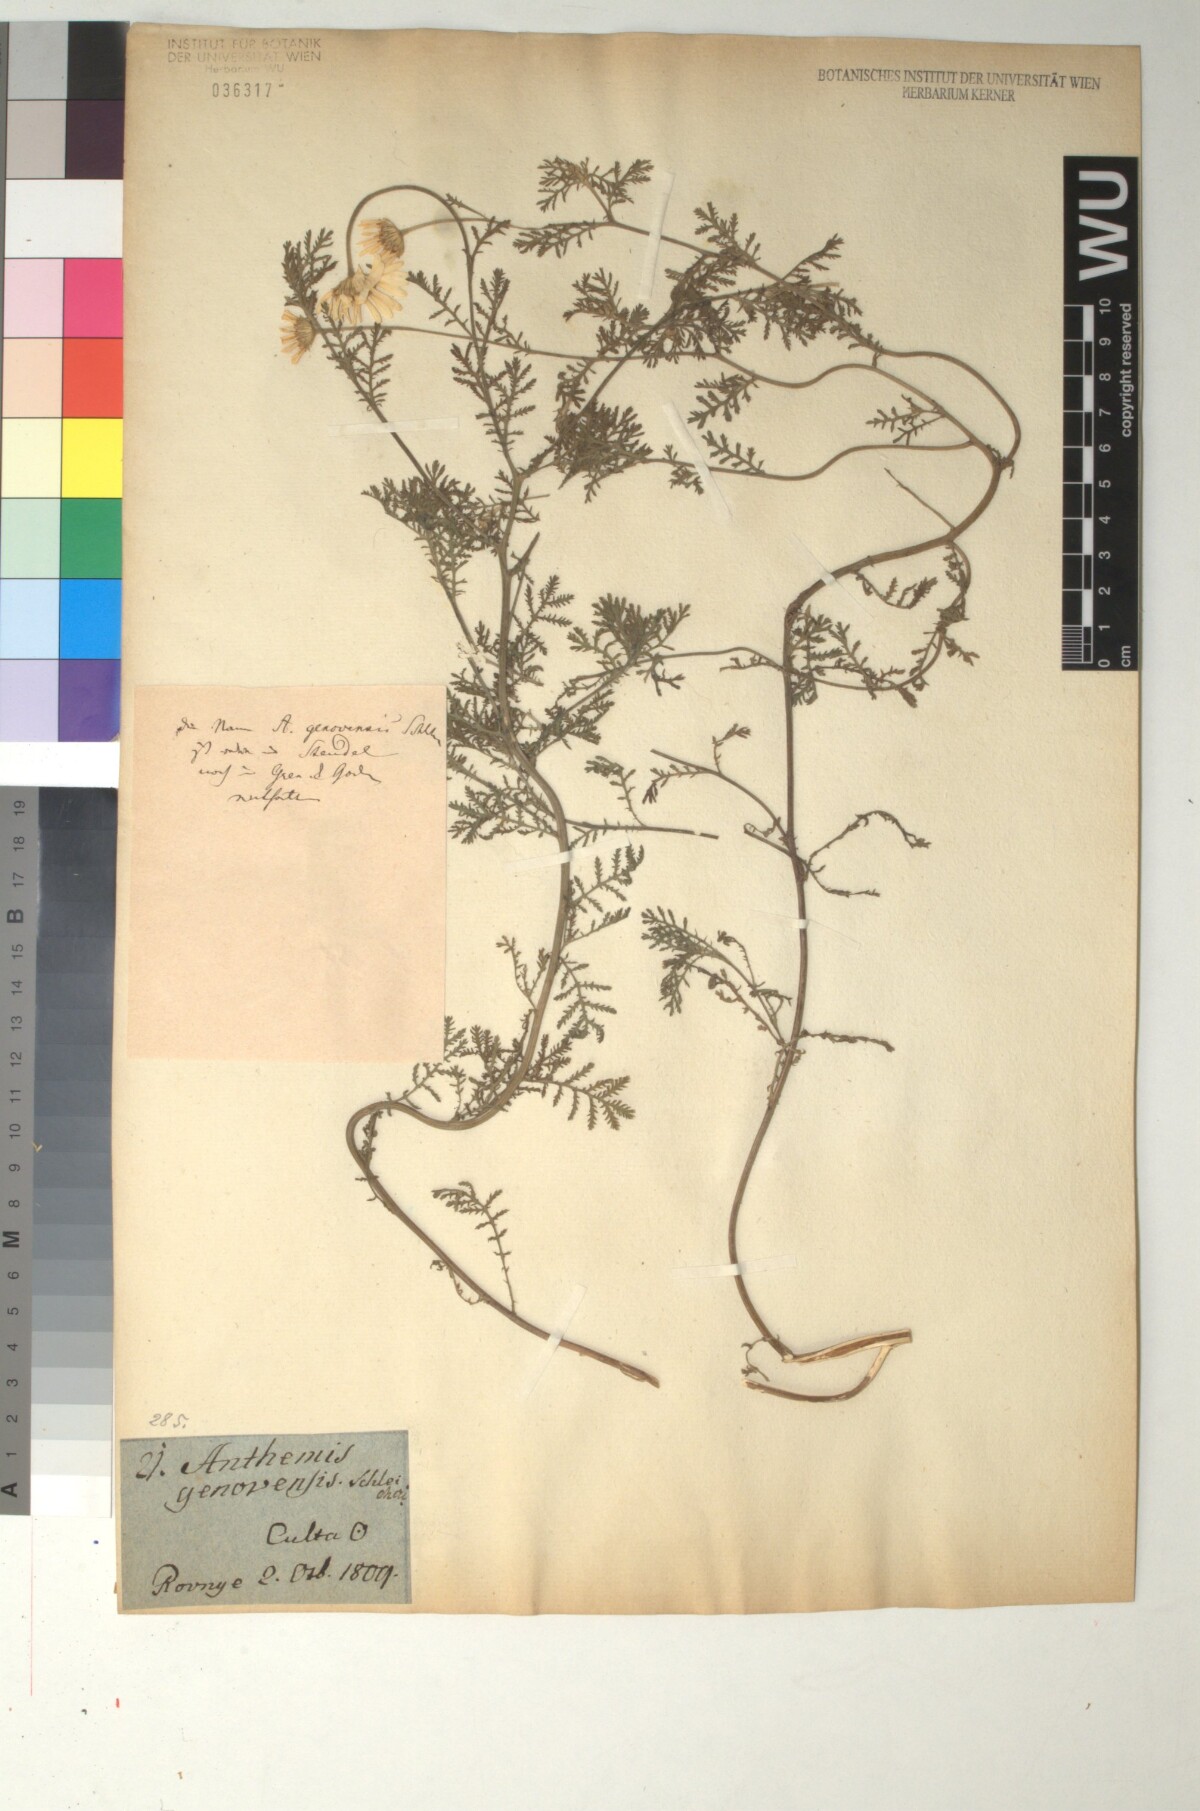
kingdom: Plantae
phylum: Tracheophyta
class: Magnoliopsida
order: Asterales
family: Asteraceae
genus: Anthemis
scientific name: Anthemis genevensis
